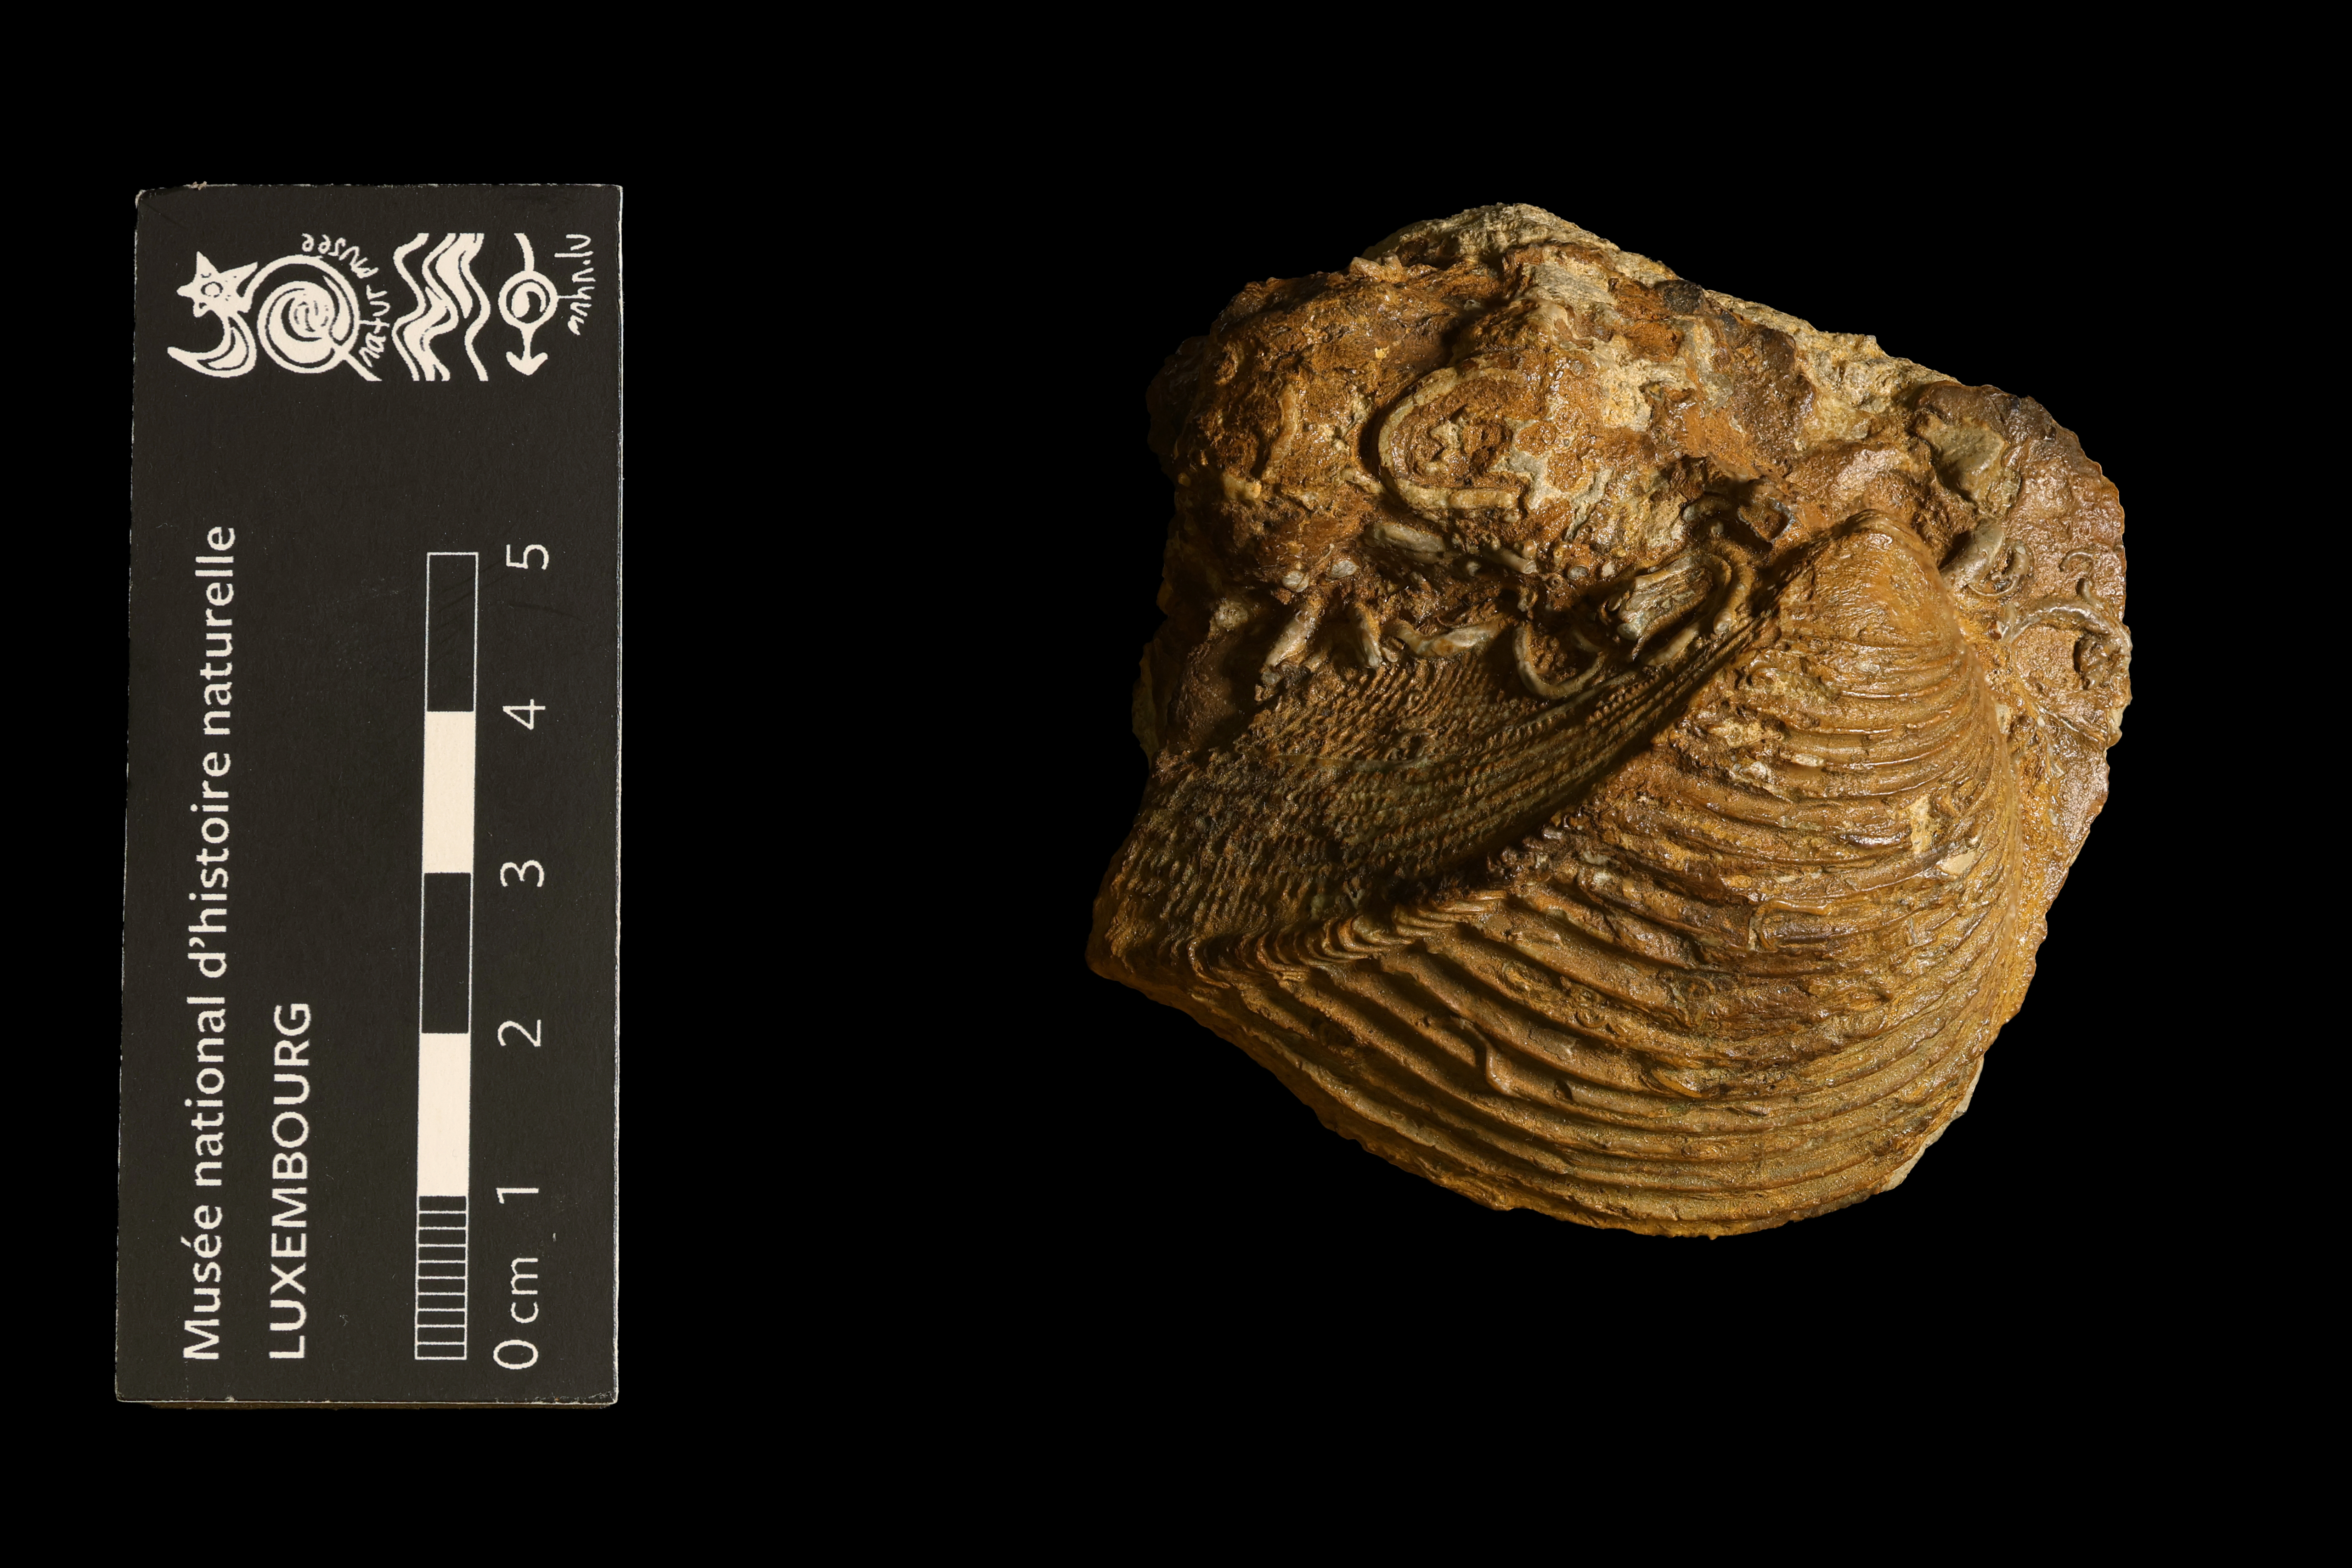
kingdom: Animalia
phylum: Mollusca
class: Bivalvia
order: Trigoniida
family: Trigoniidae
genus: Trigonia
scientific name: Trigonia costata
